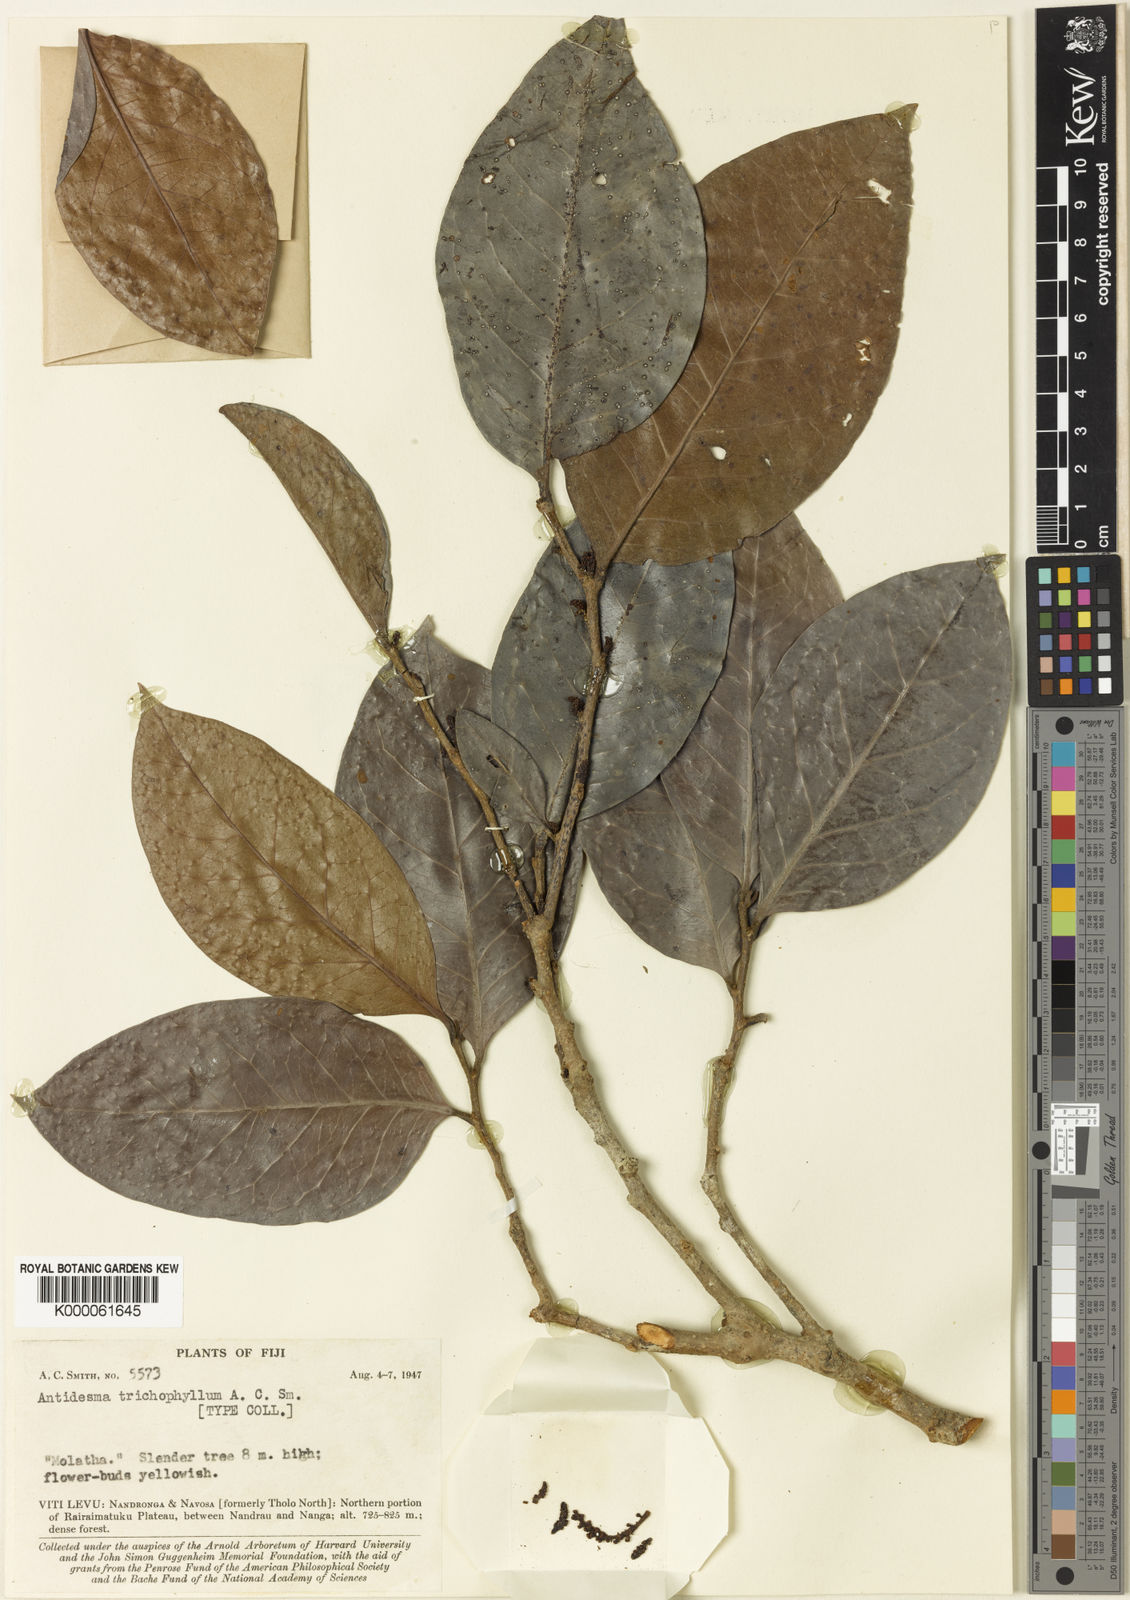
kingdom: Plantae
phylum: Tracheophyta
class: Magnoliopsida
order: Malpighiales
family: Phyllanthaceae
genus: Antidesma
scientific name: Antidesma trichophyllum
